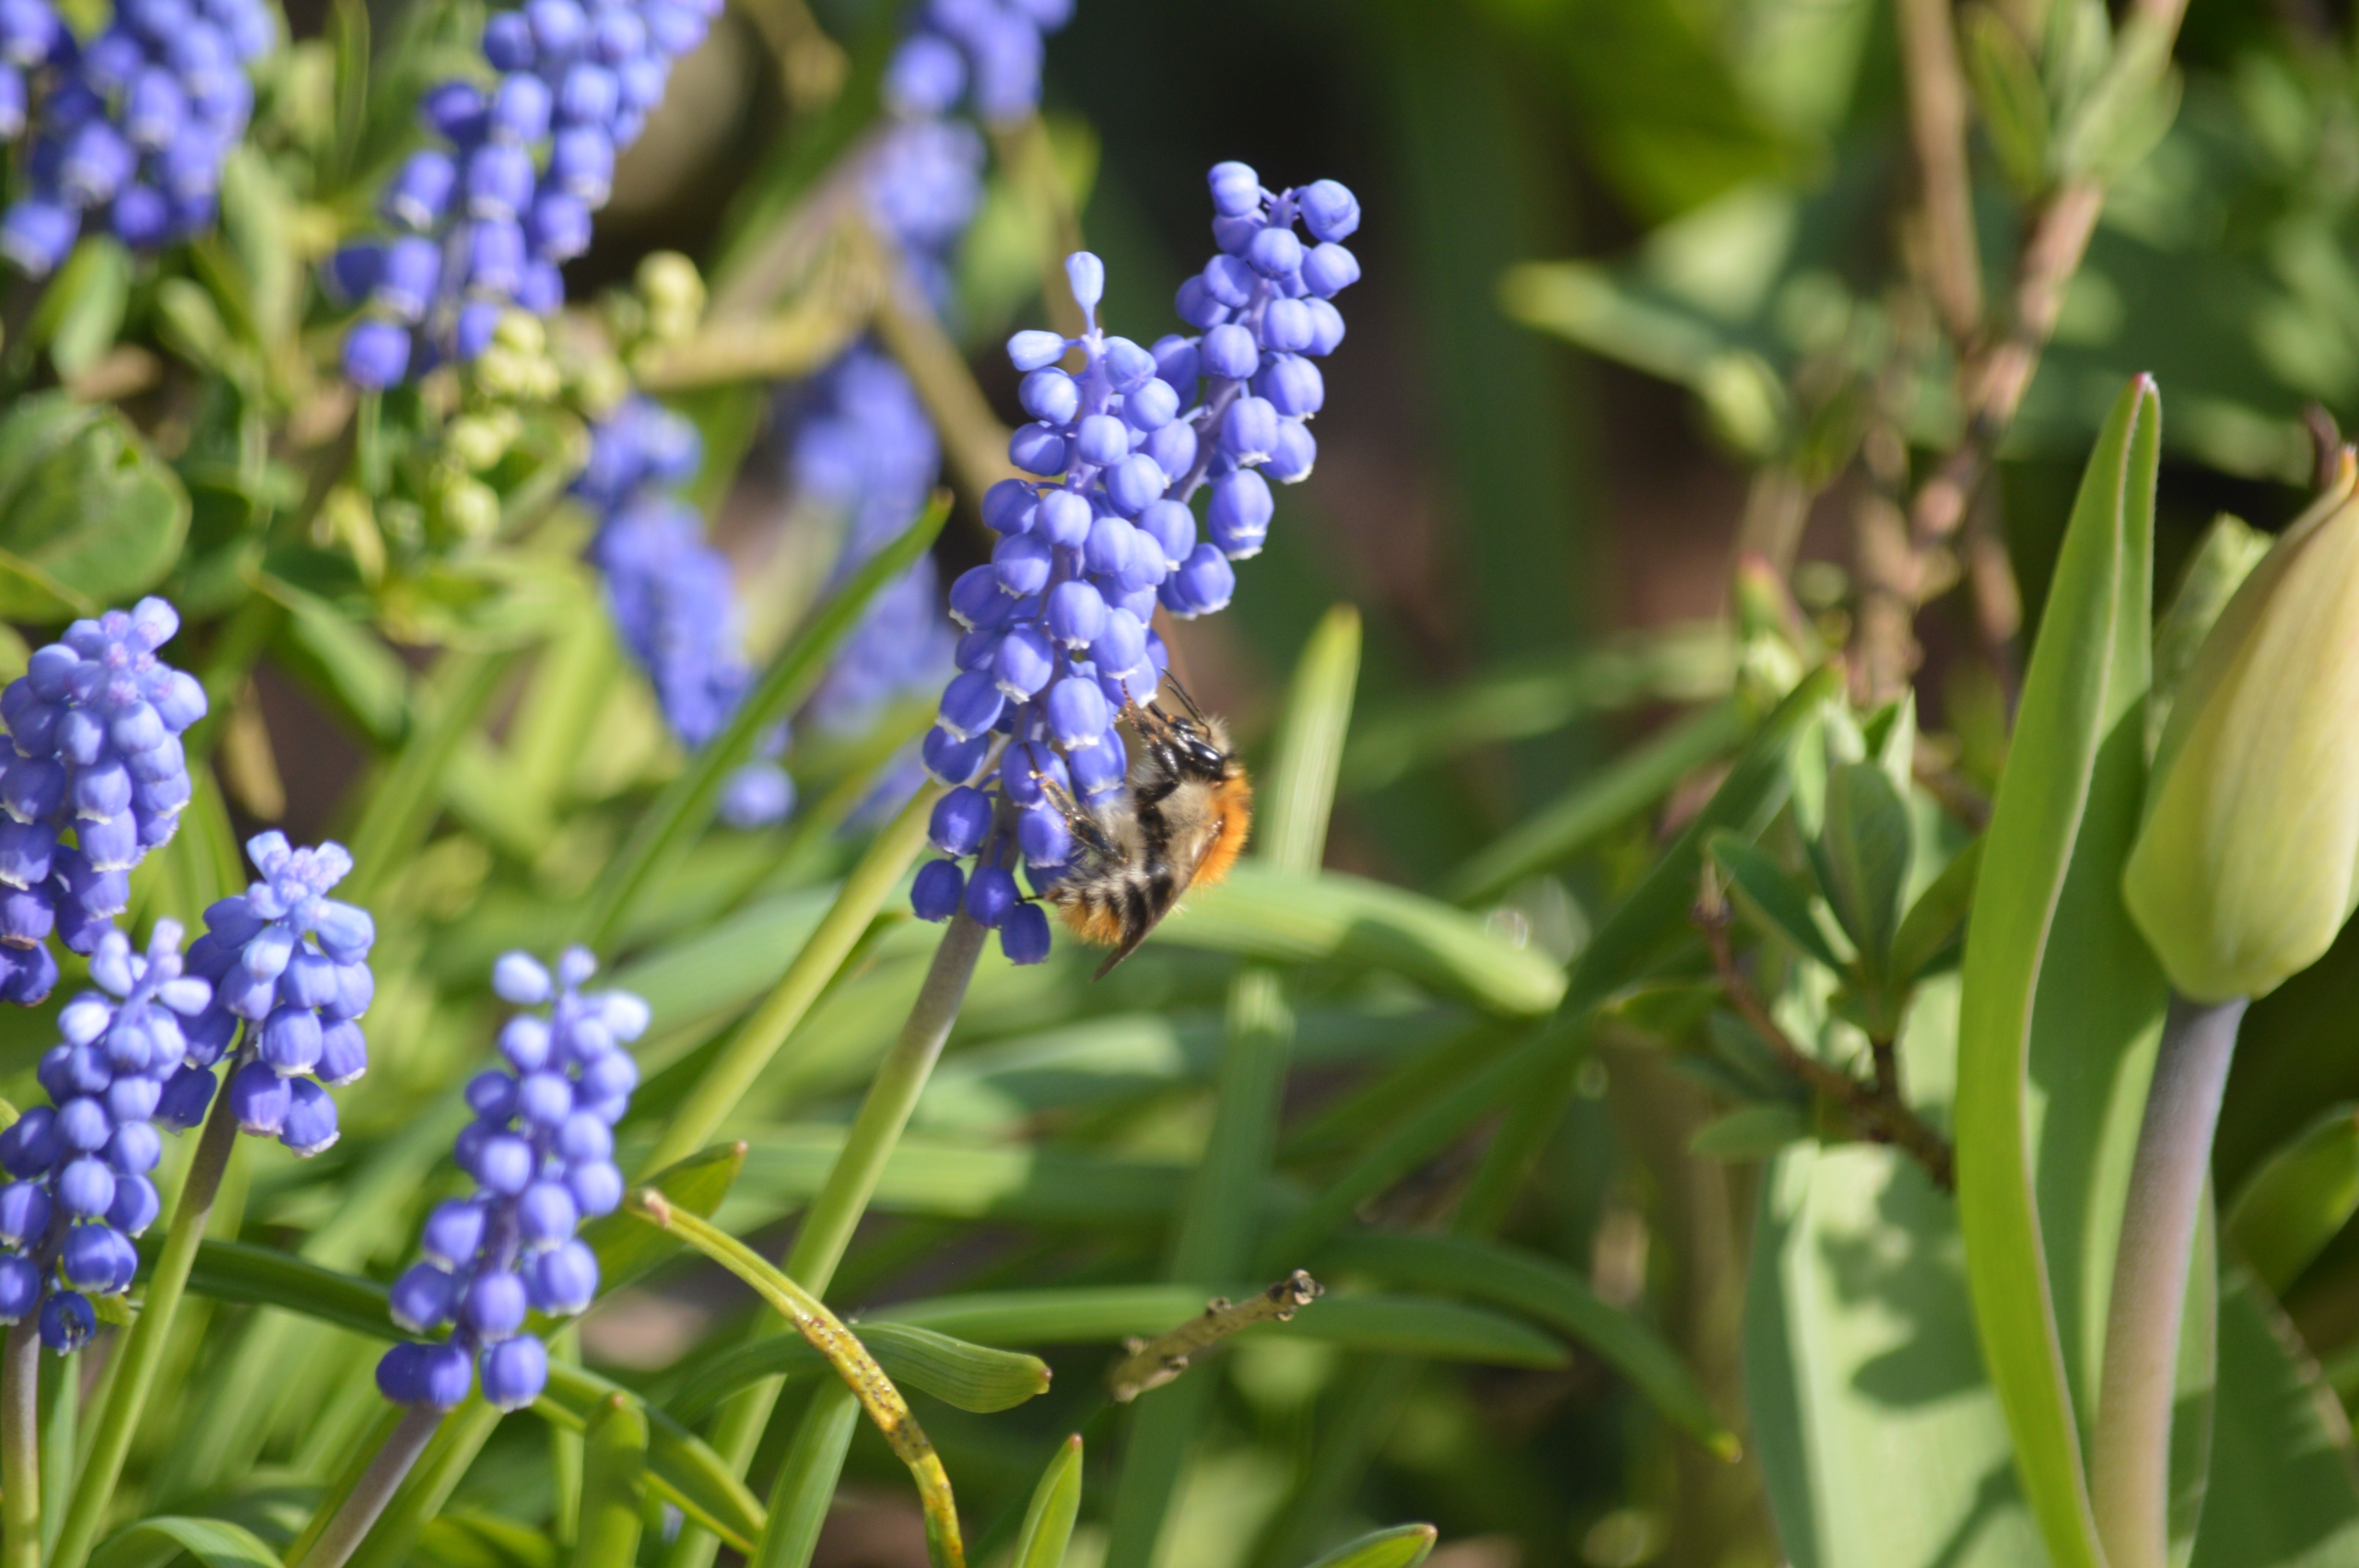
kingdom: Animalia
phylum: Arthropoda
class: Insecta
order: Hymenoptera
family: Apidae
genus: Bombus
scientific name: Bombus pascuorum
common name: Agerhumle
